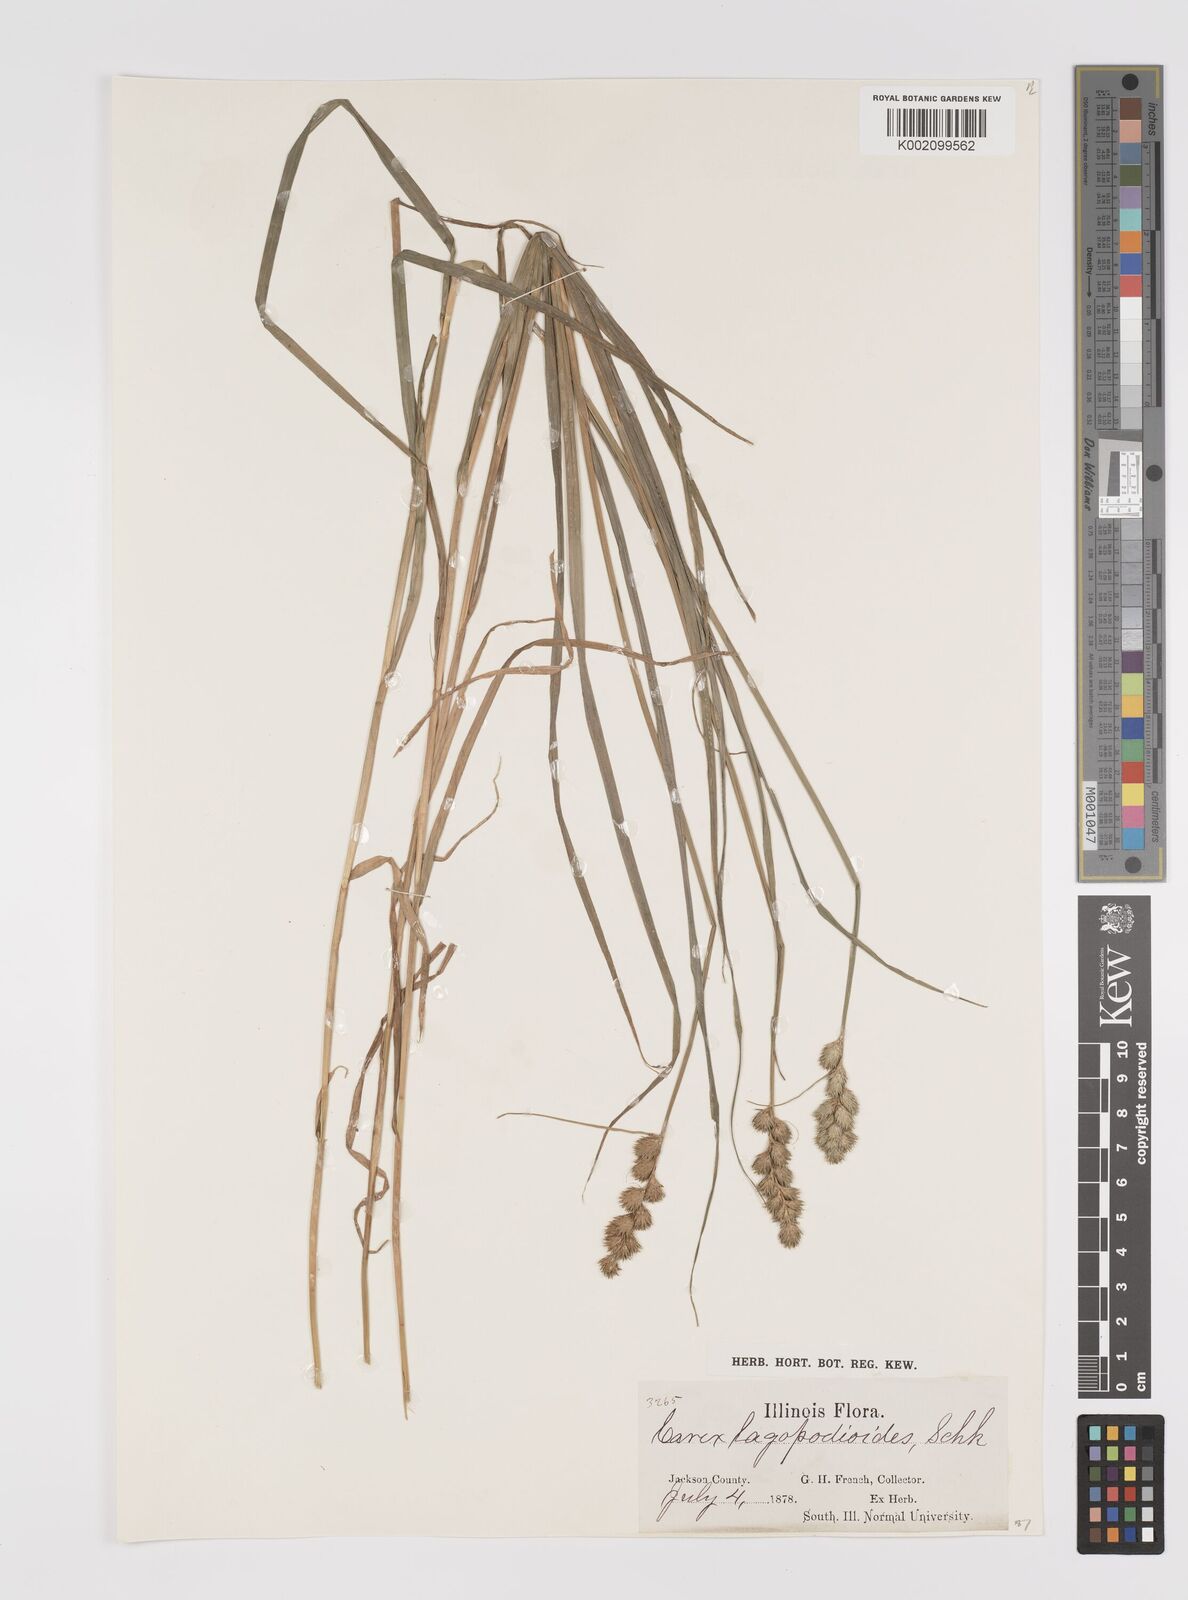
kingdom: Plantae
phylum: Tracheophyta
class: Liliopsida
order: Poales
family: Cyperaceae
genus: Carex
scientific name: Carex lachenalii
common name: Hare's-foot sedge
